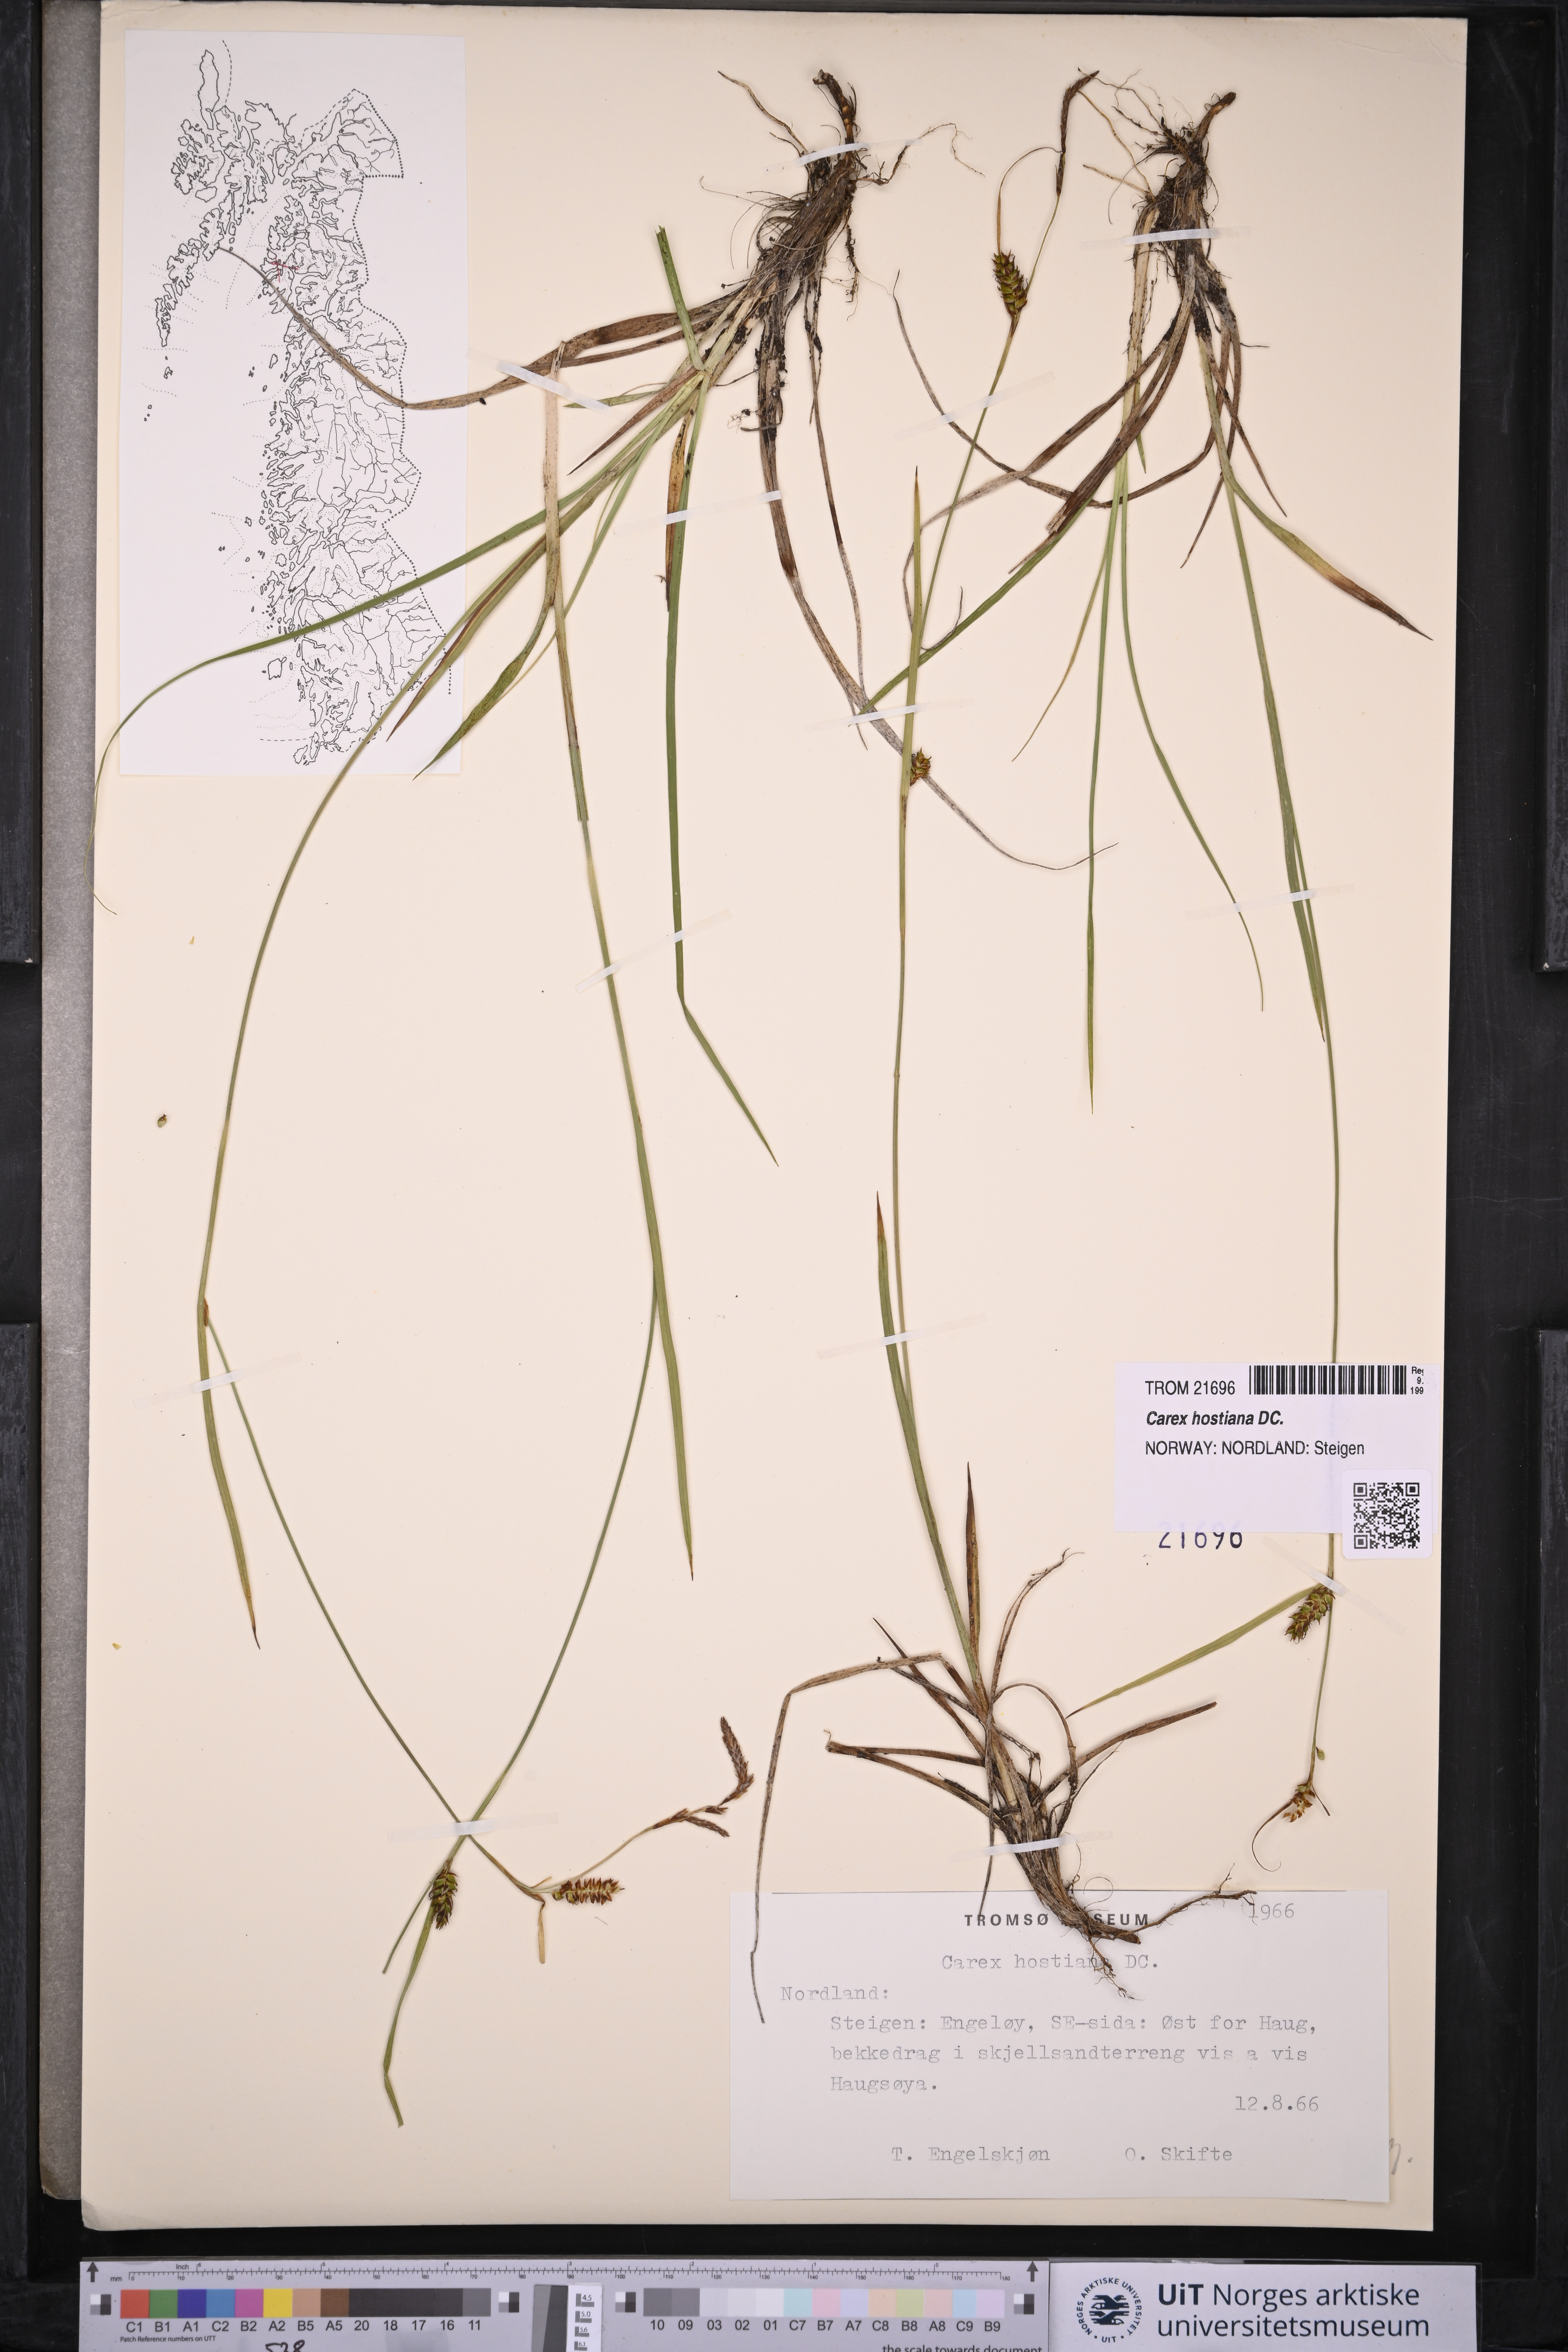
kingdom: Plantae
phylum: Tracheophyta
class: Liliopsida
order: Poales
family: Cyperaceae
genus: Carex
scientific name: Carex hostiana
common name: Tawny sedge
